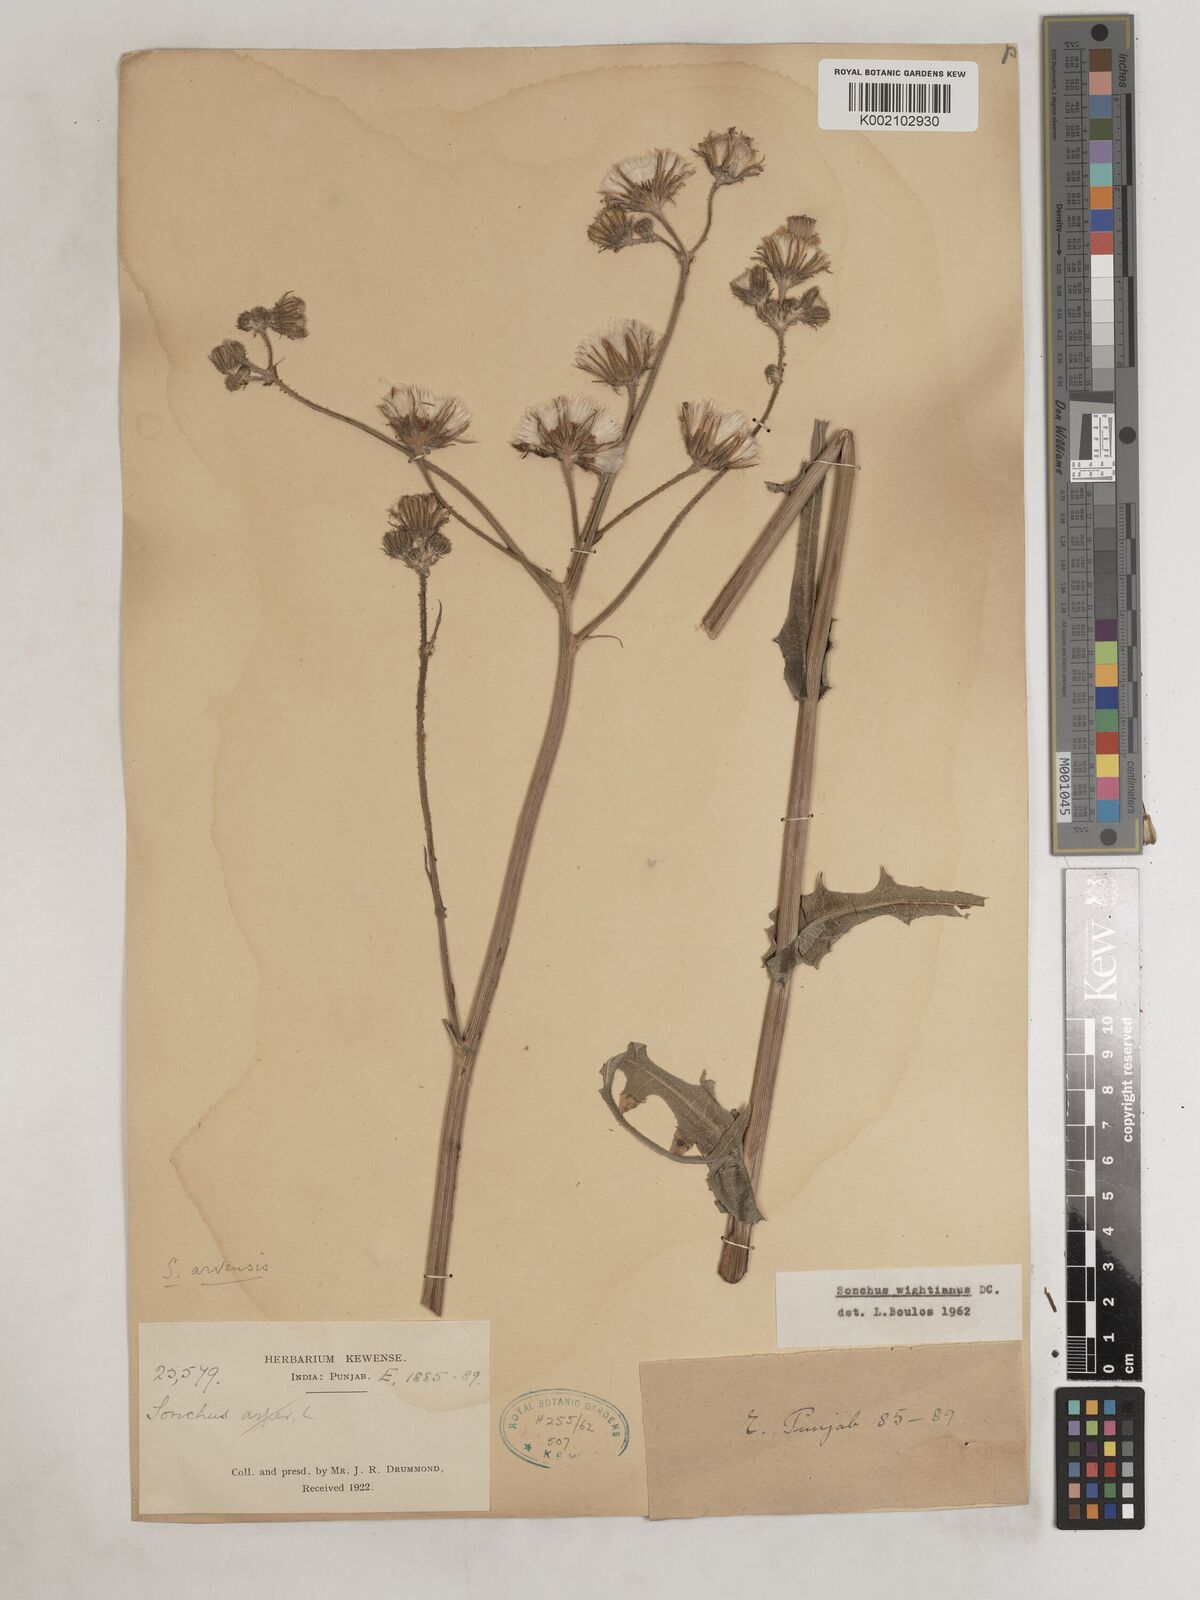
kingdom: Plantae
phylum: Tracheophyta
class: Magnoliopsida
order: Asterales
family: Asteraceae
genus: Sonchus
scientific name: Sonchus arvensis
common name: Perennial sow-thistle
